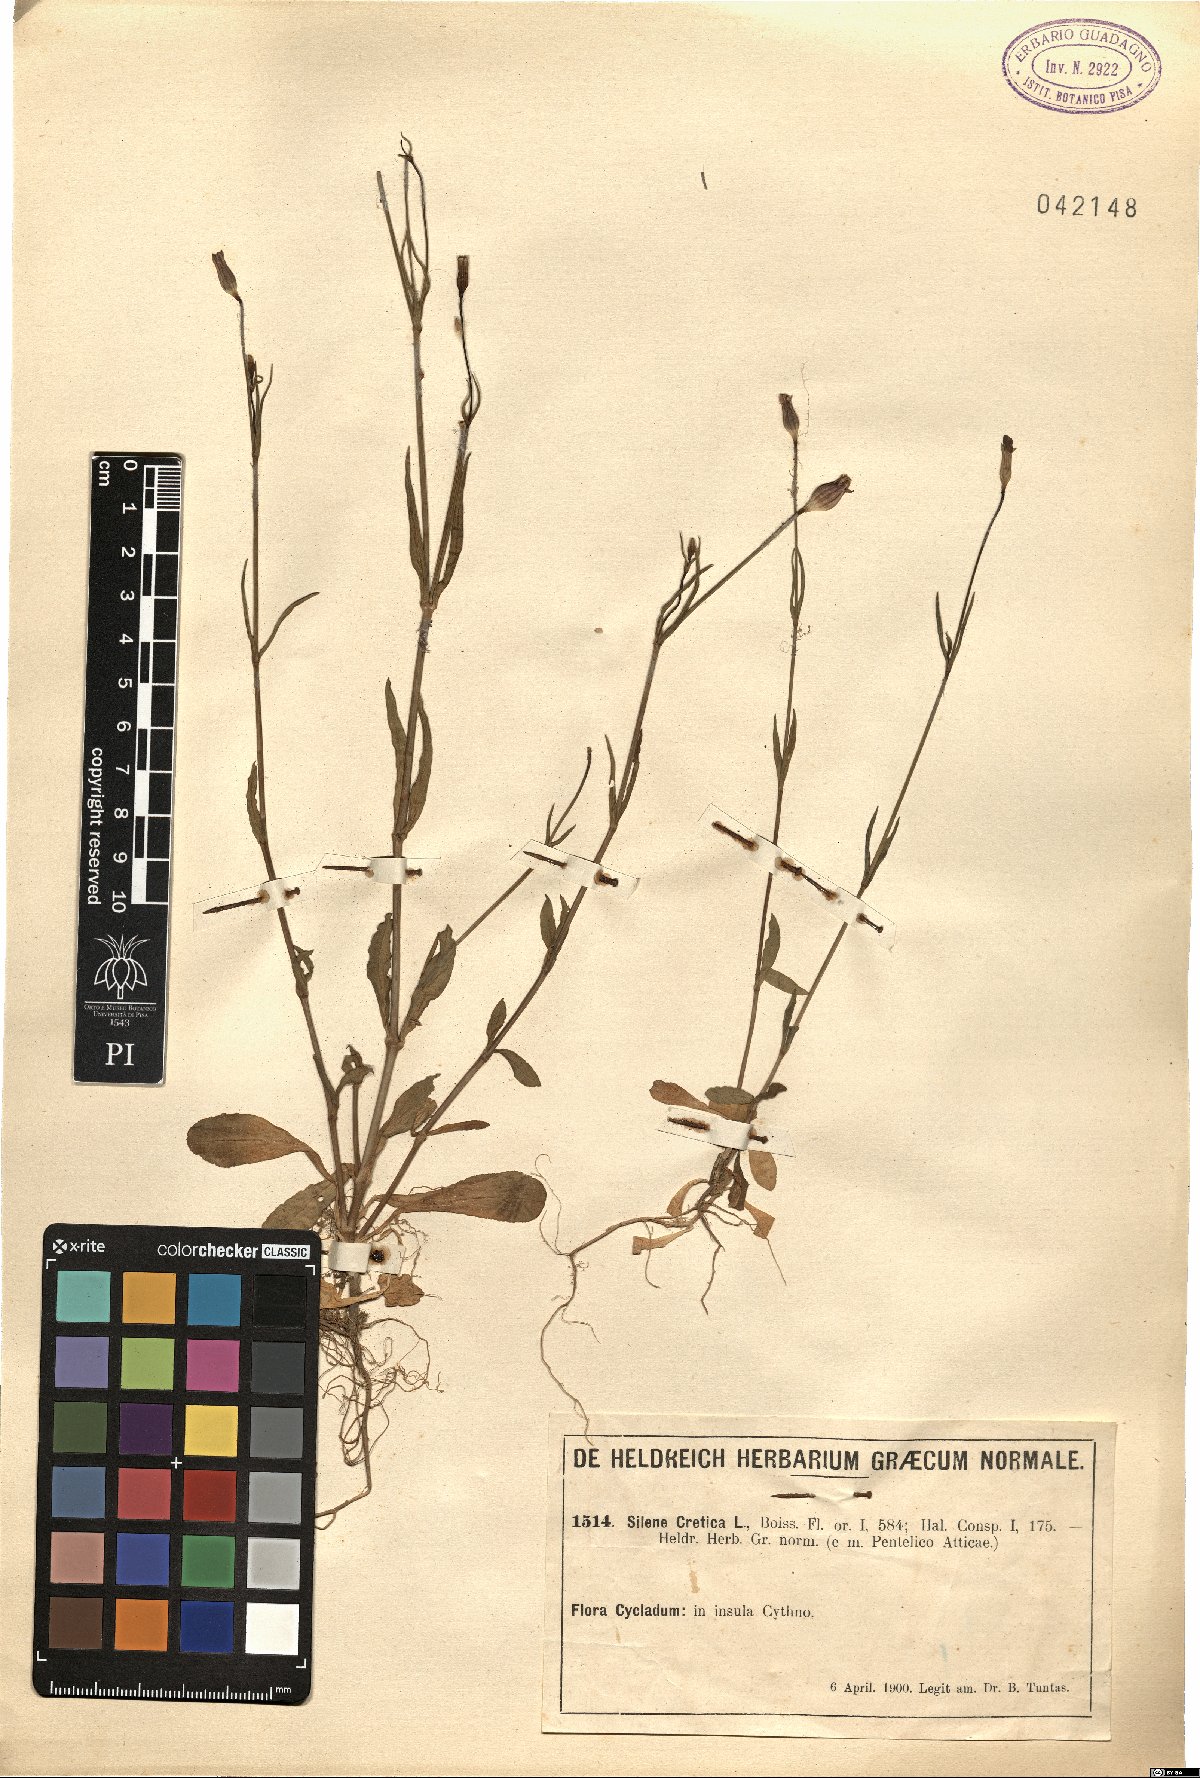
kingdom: Plantae
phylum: Tracheophyta
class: Magnoliopsida
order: Caryophyllales
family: Caryophyllaceae
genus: Silene
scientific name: Silene cretica
